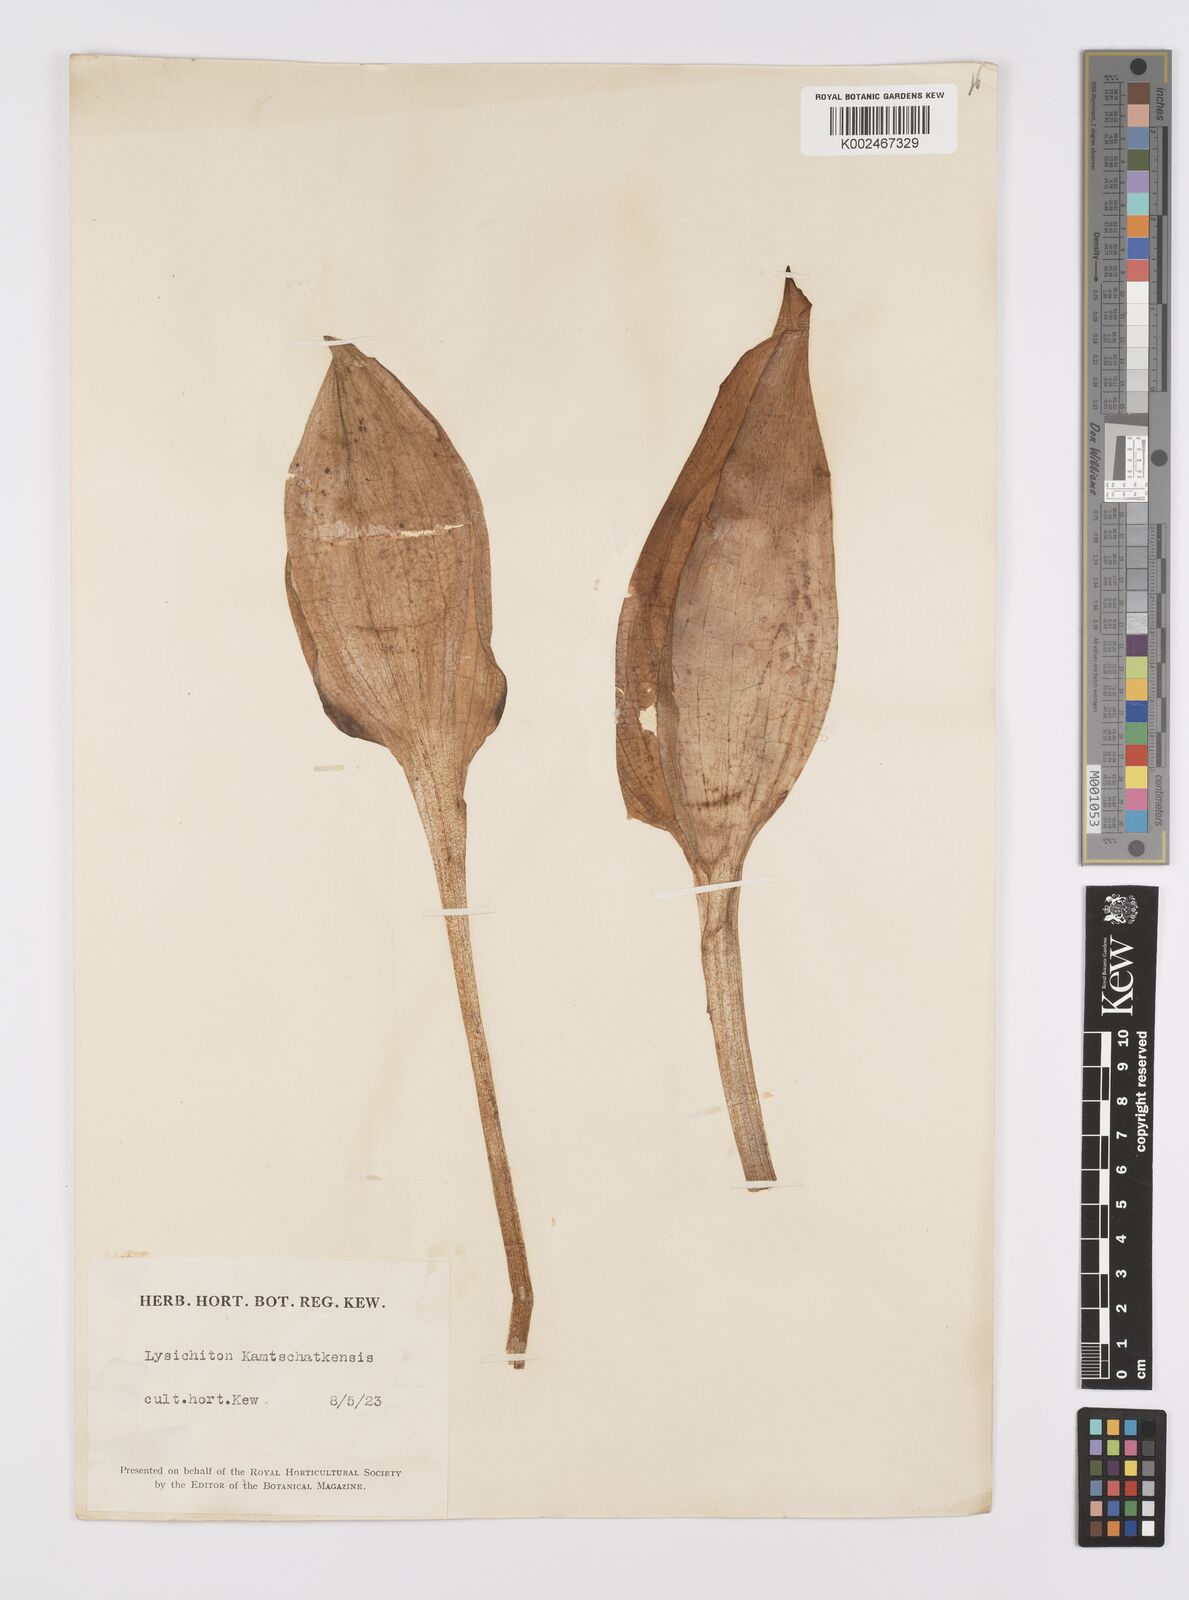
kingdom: Plantae
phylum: Tracheophyta
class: Liliopsida
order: Alismatales
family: Araceae
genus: Lysichiton
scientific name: Lysichiton americanus
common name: American skunk cabbage
